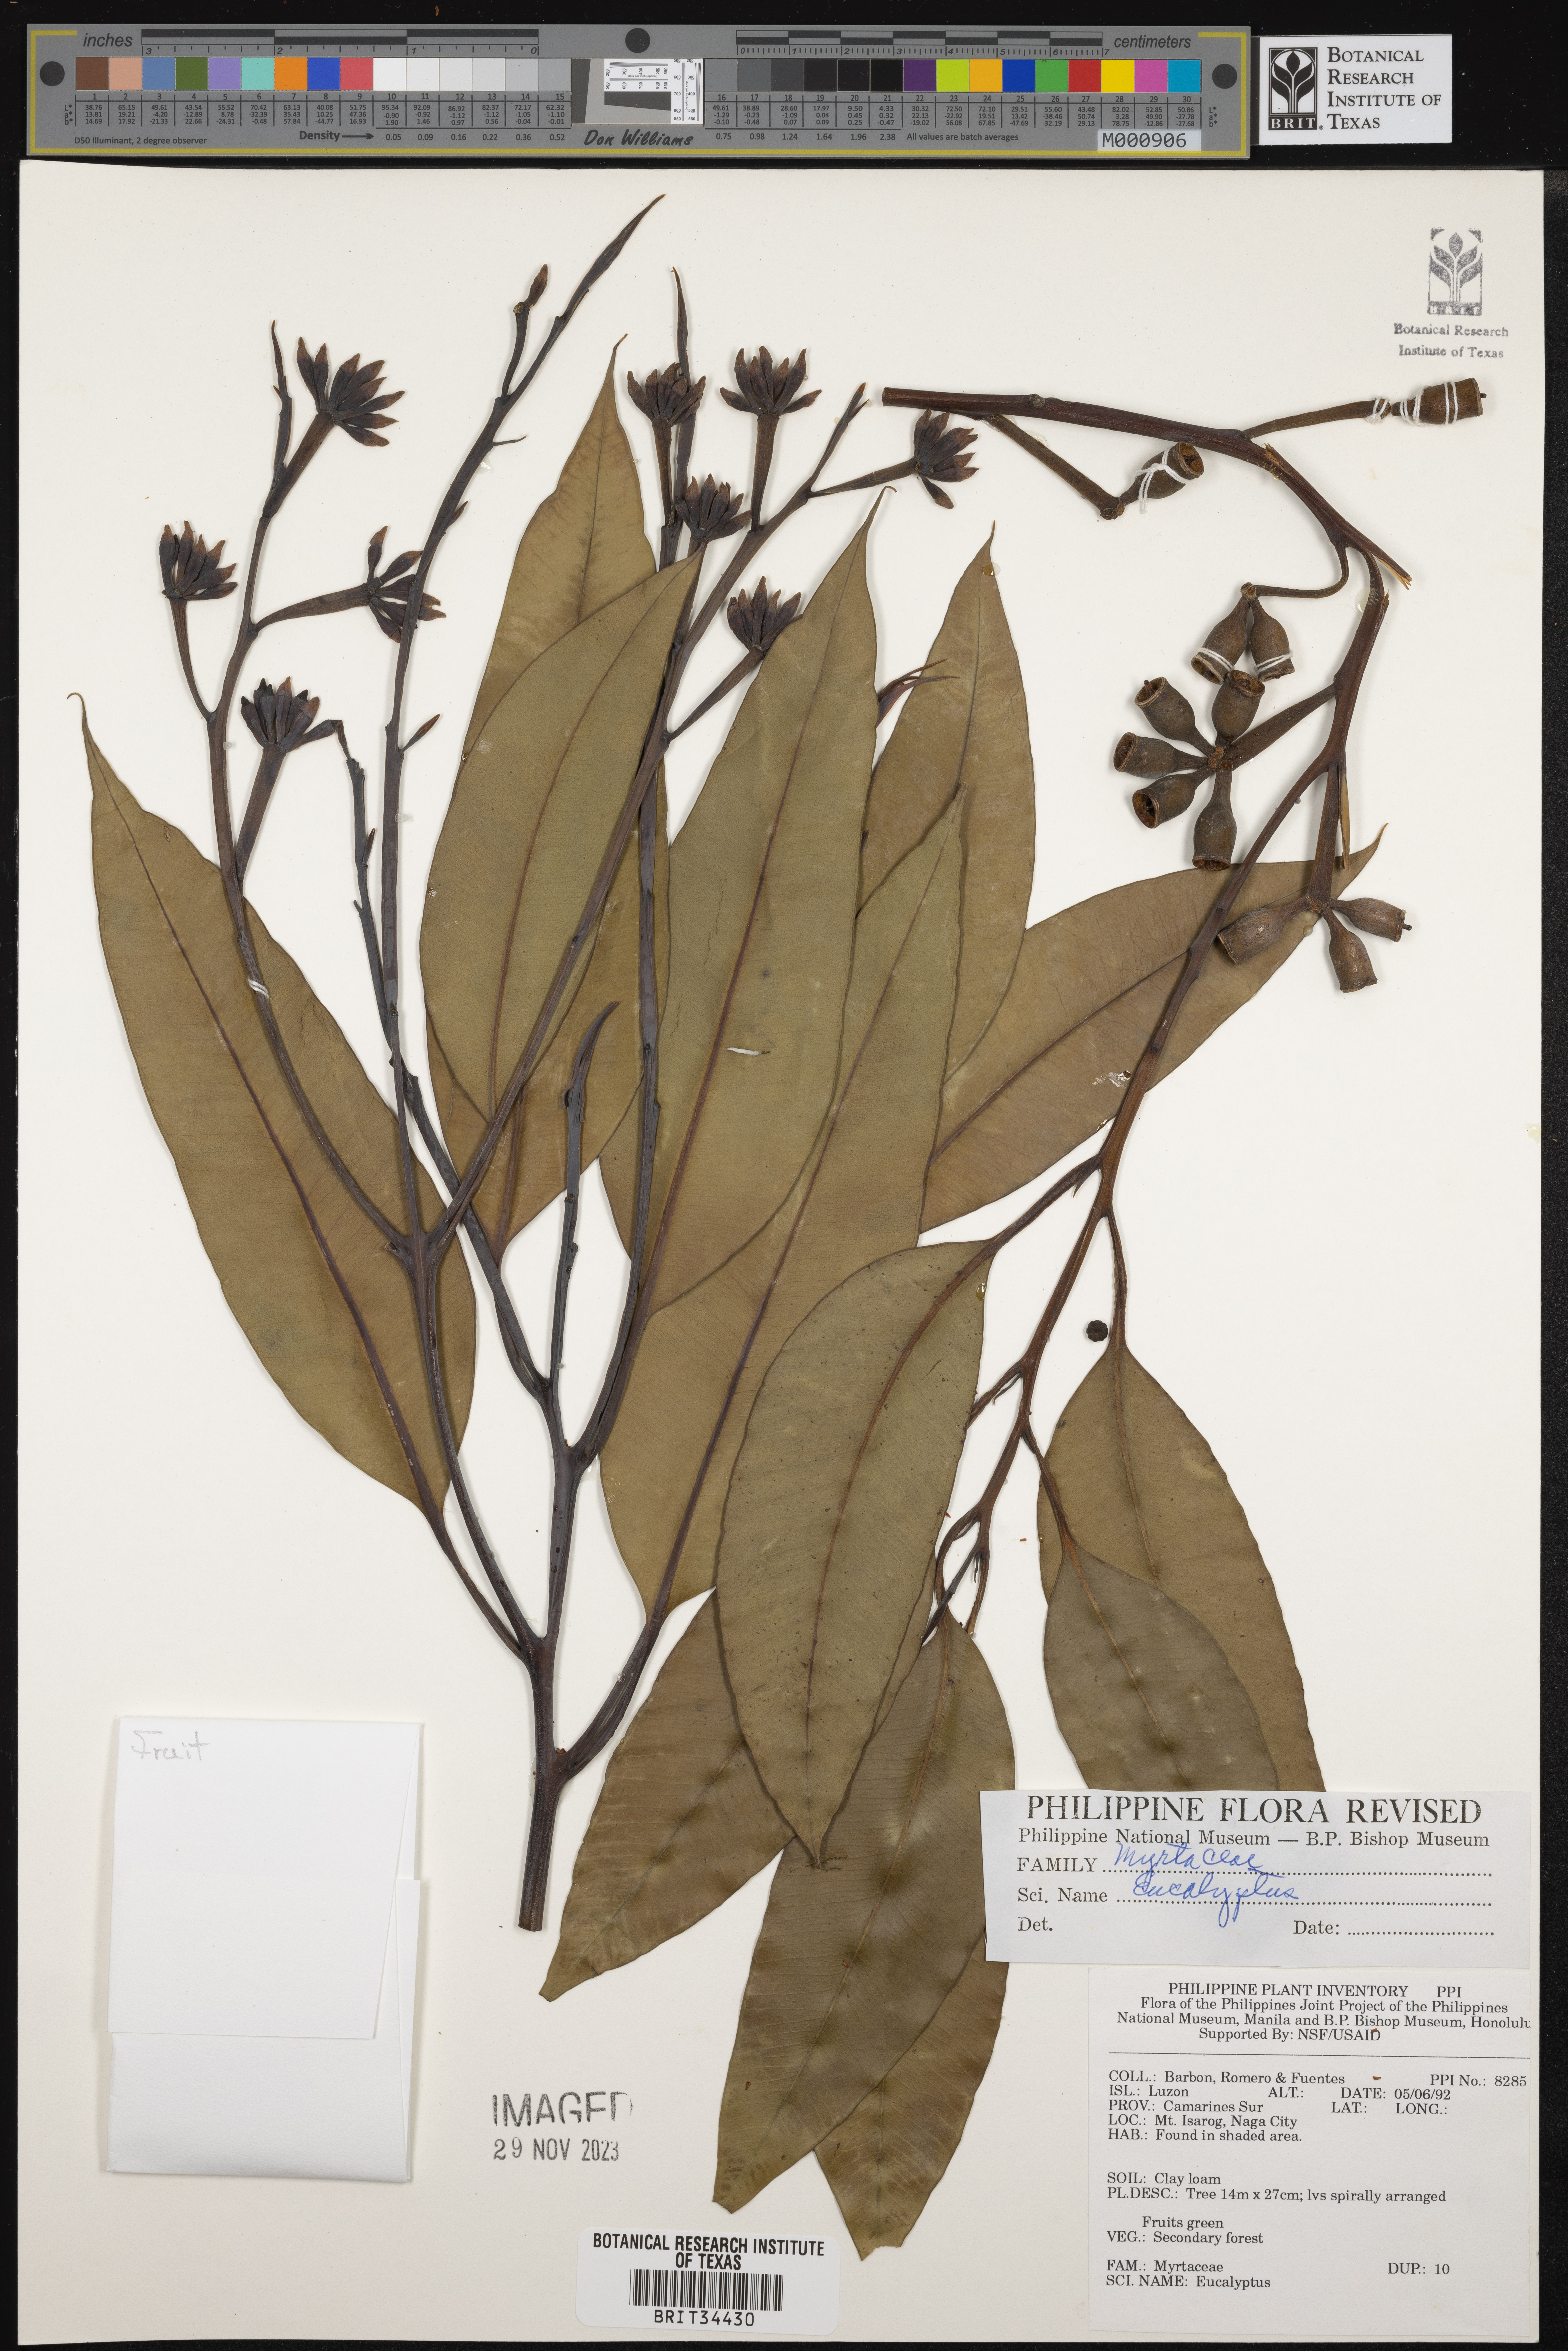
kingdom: Plantae
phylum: Tracheophyta
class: Magnoliopsida
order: Myrtales
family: Myrtaceae
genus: Eucalyptus
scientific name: Eucalyptus
